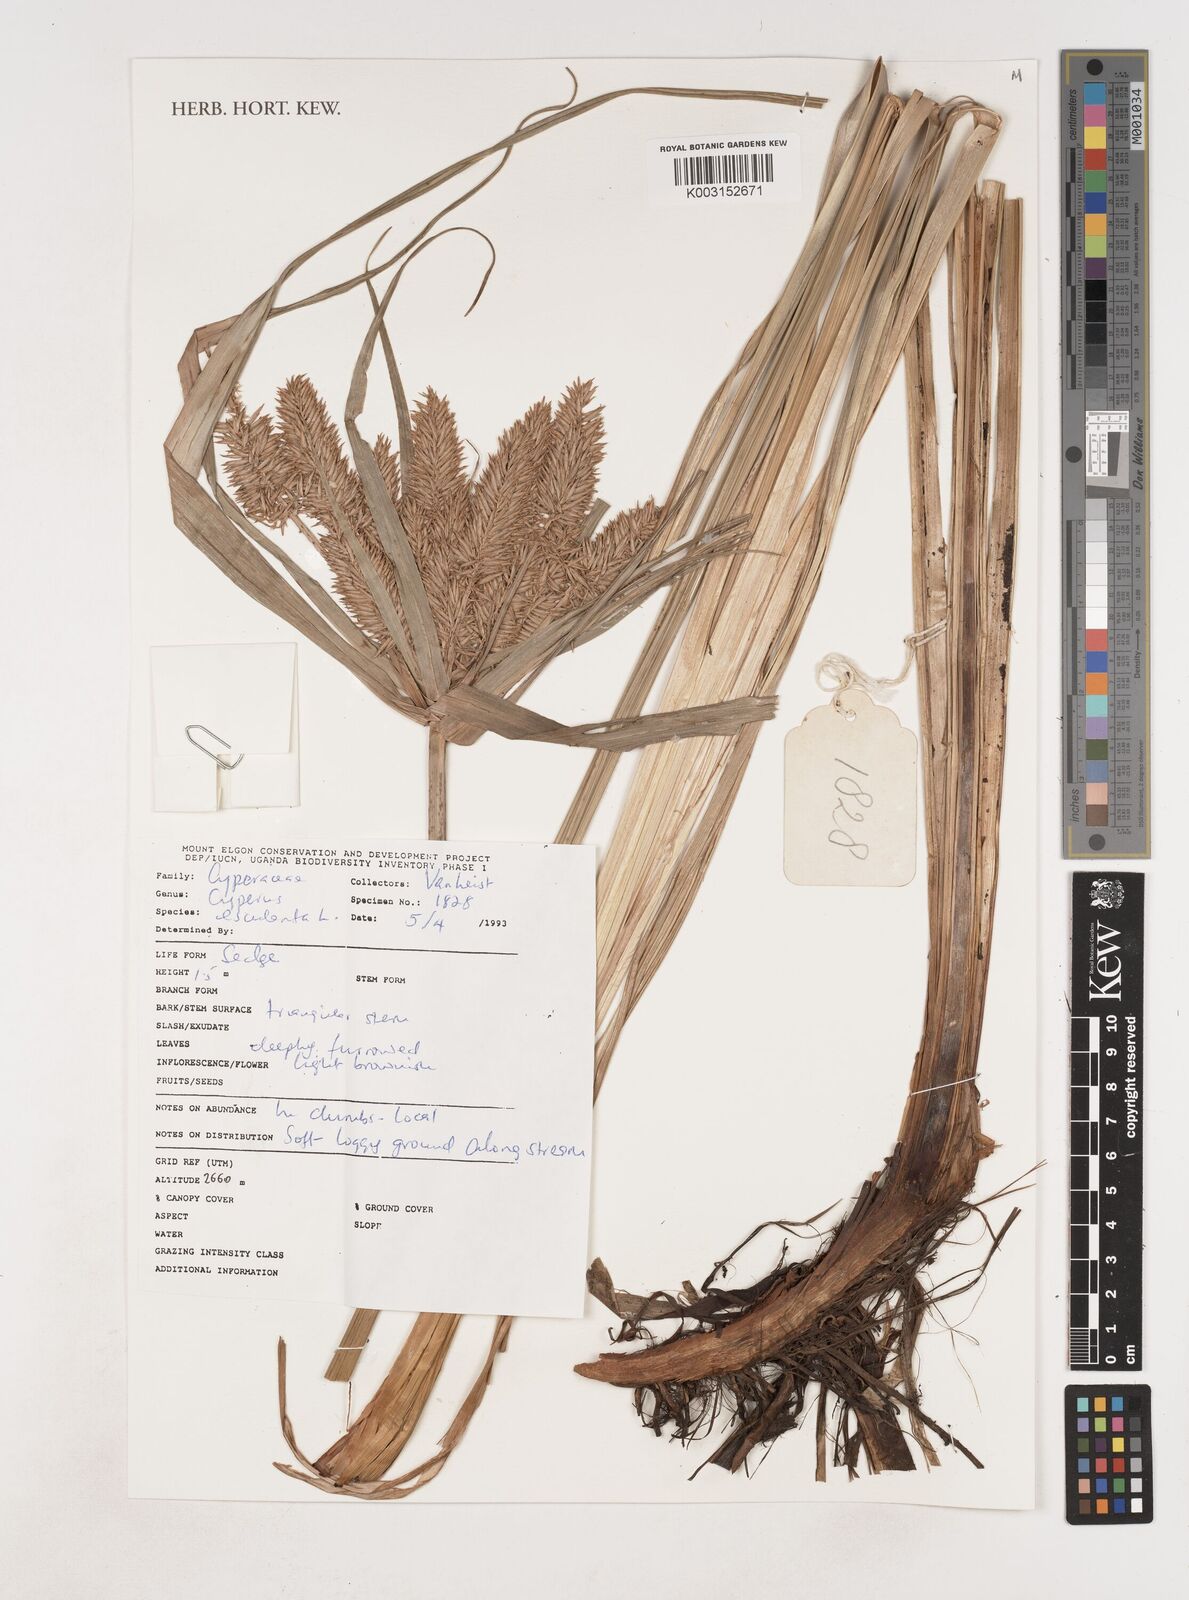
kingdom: Plantae
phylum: Tracheophyta
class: Liliopsida
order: Poales
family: Cyperaceae
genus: Cyperus
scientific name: Cyperus esculentus
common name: Yellow nutsedge
